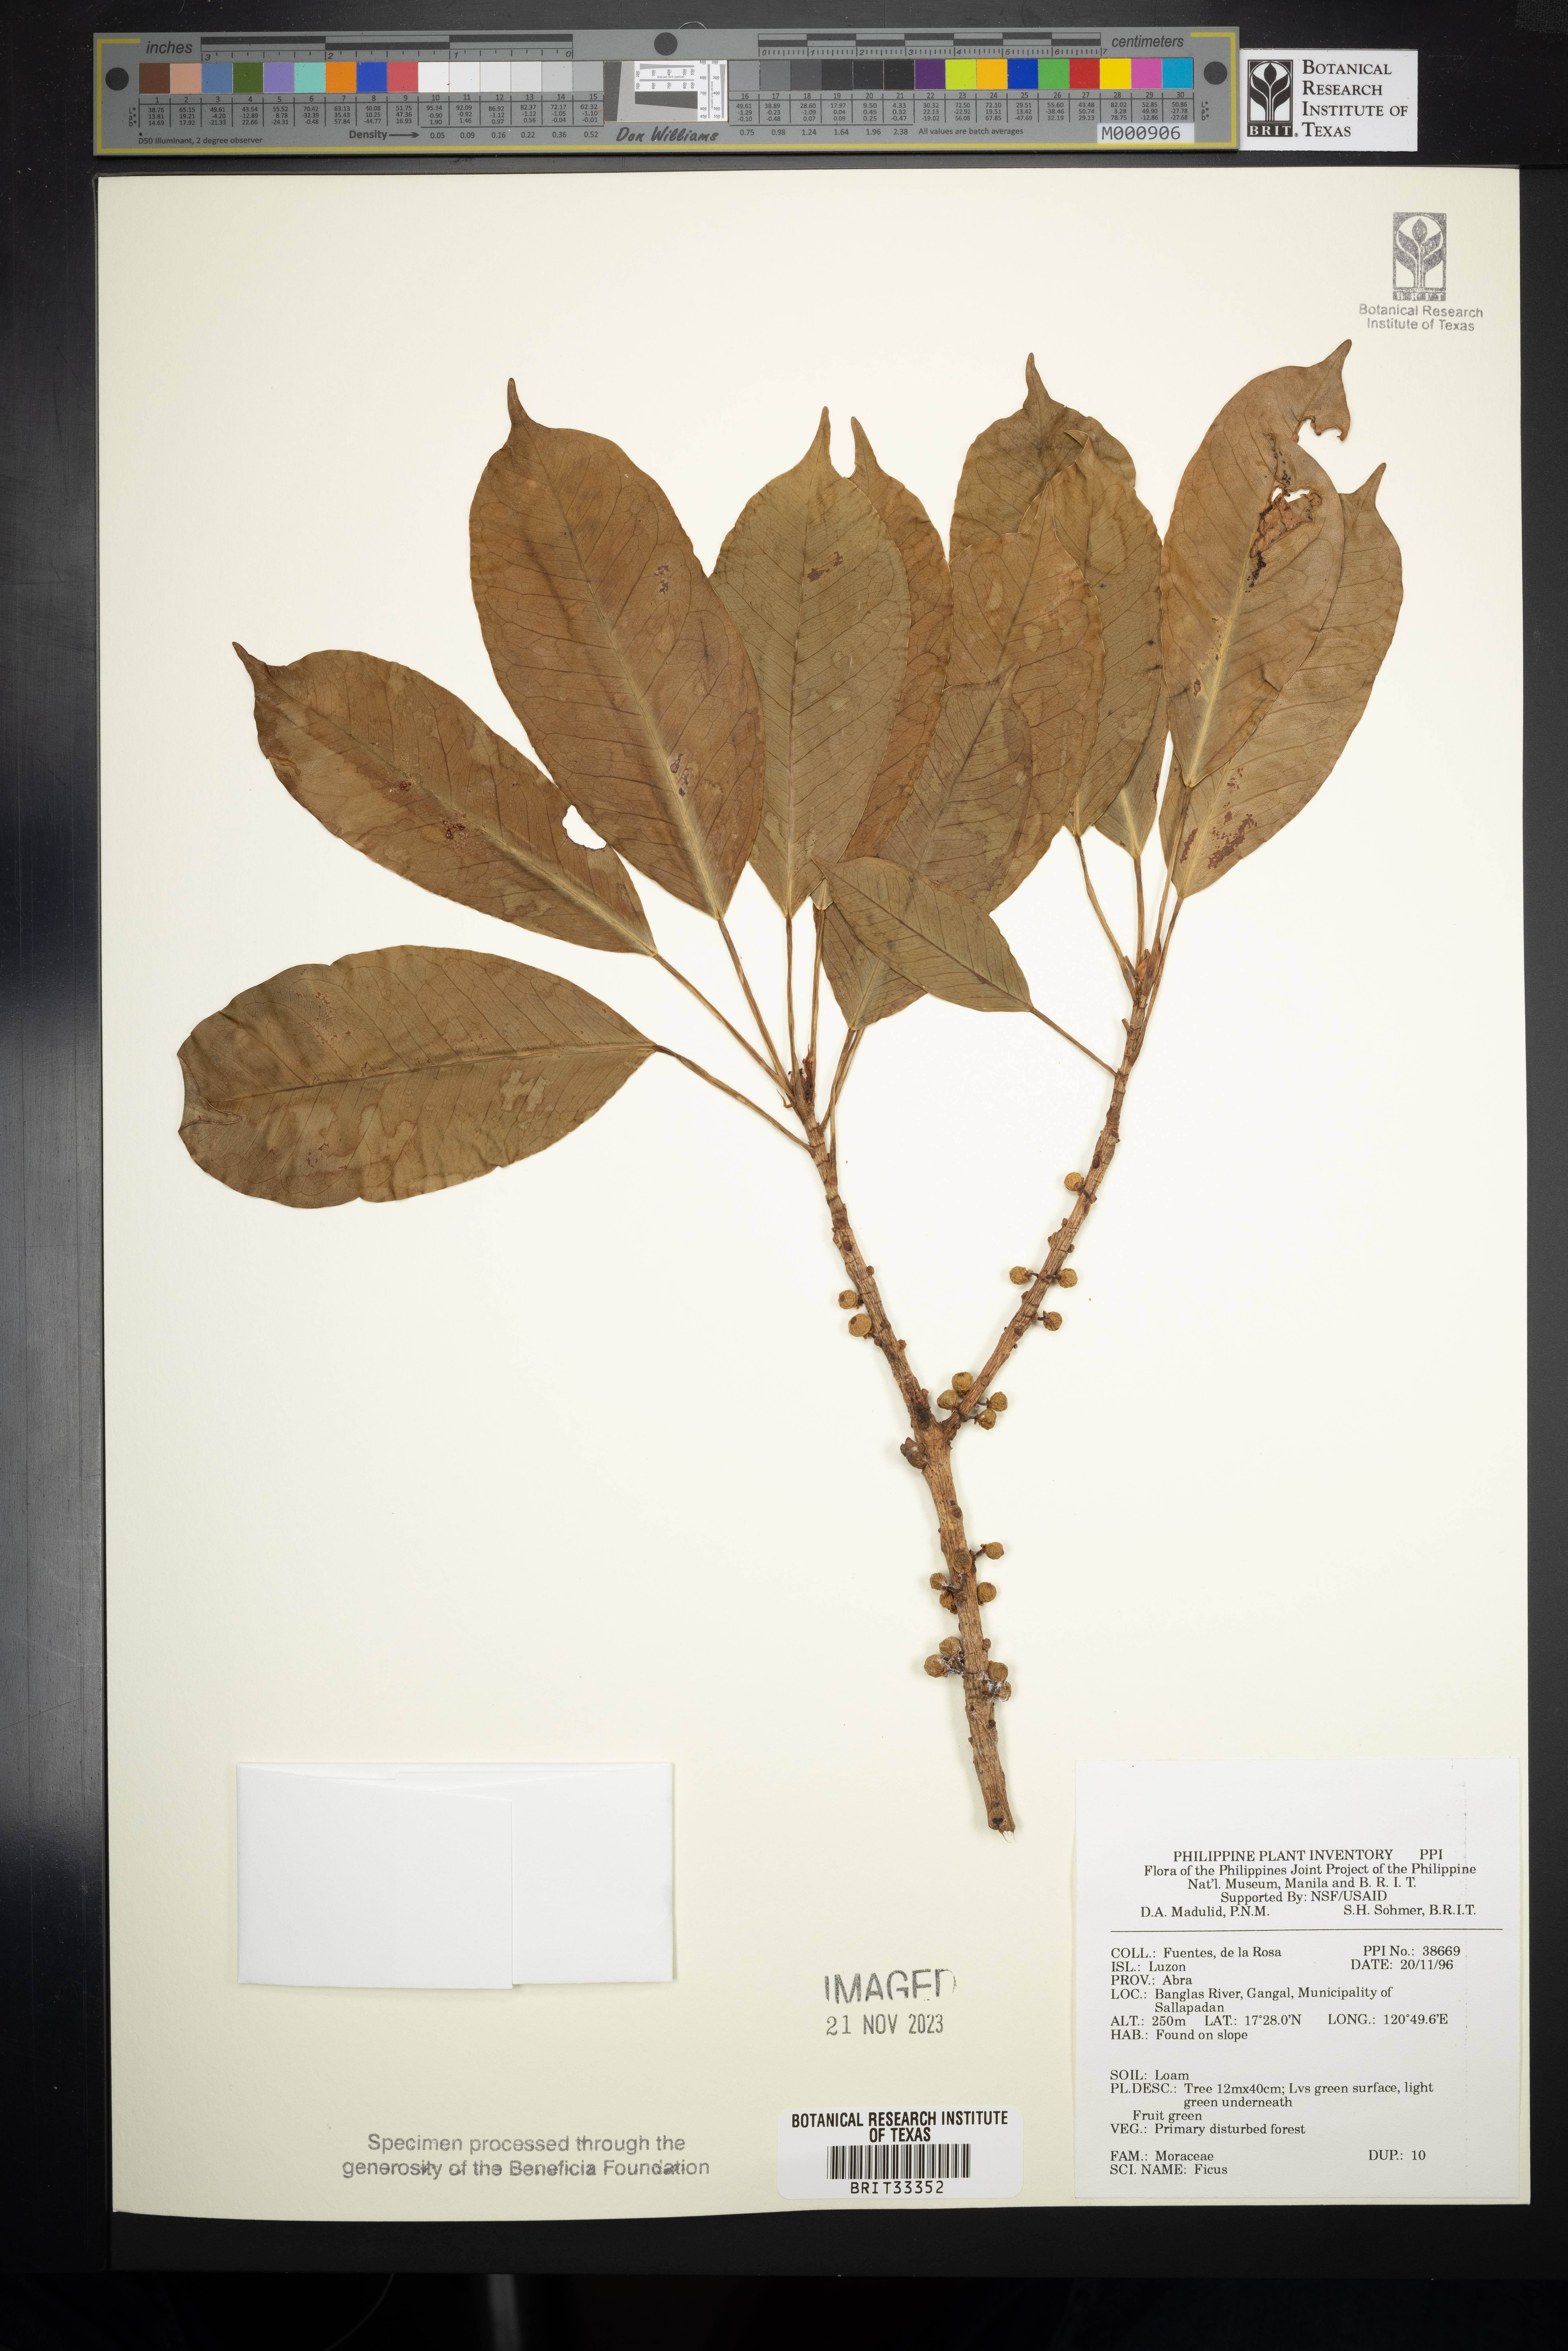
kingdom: Plantae
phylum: Tracheophyta
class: Magnoliopsida
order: Rosales
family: Moraceae
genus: Ficus
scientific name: Ficus
